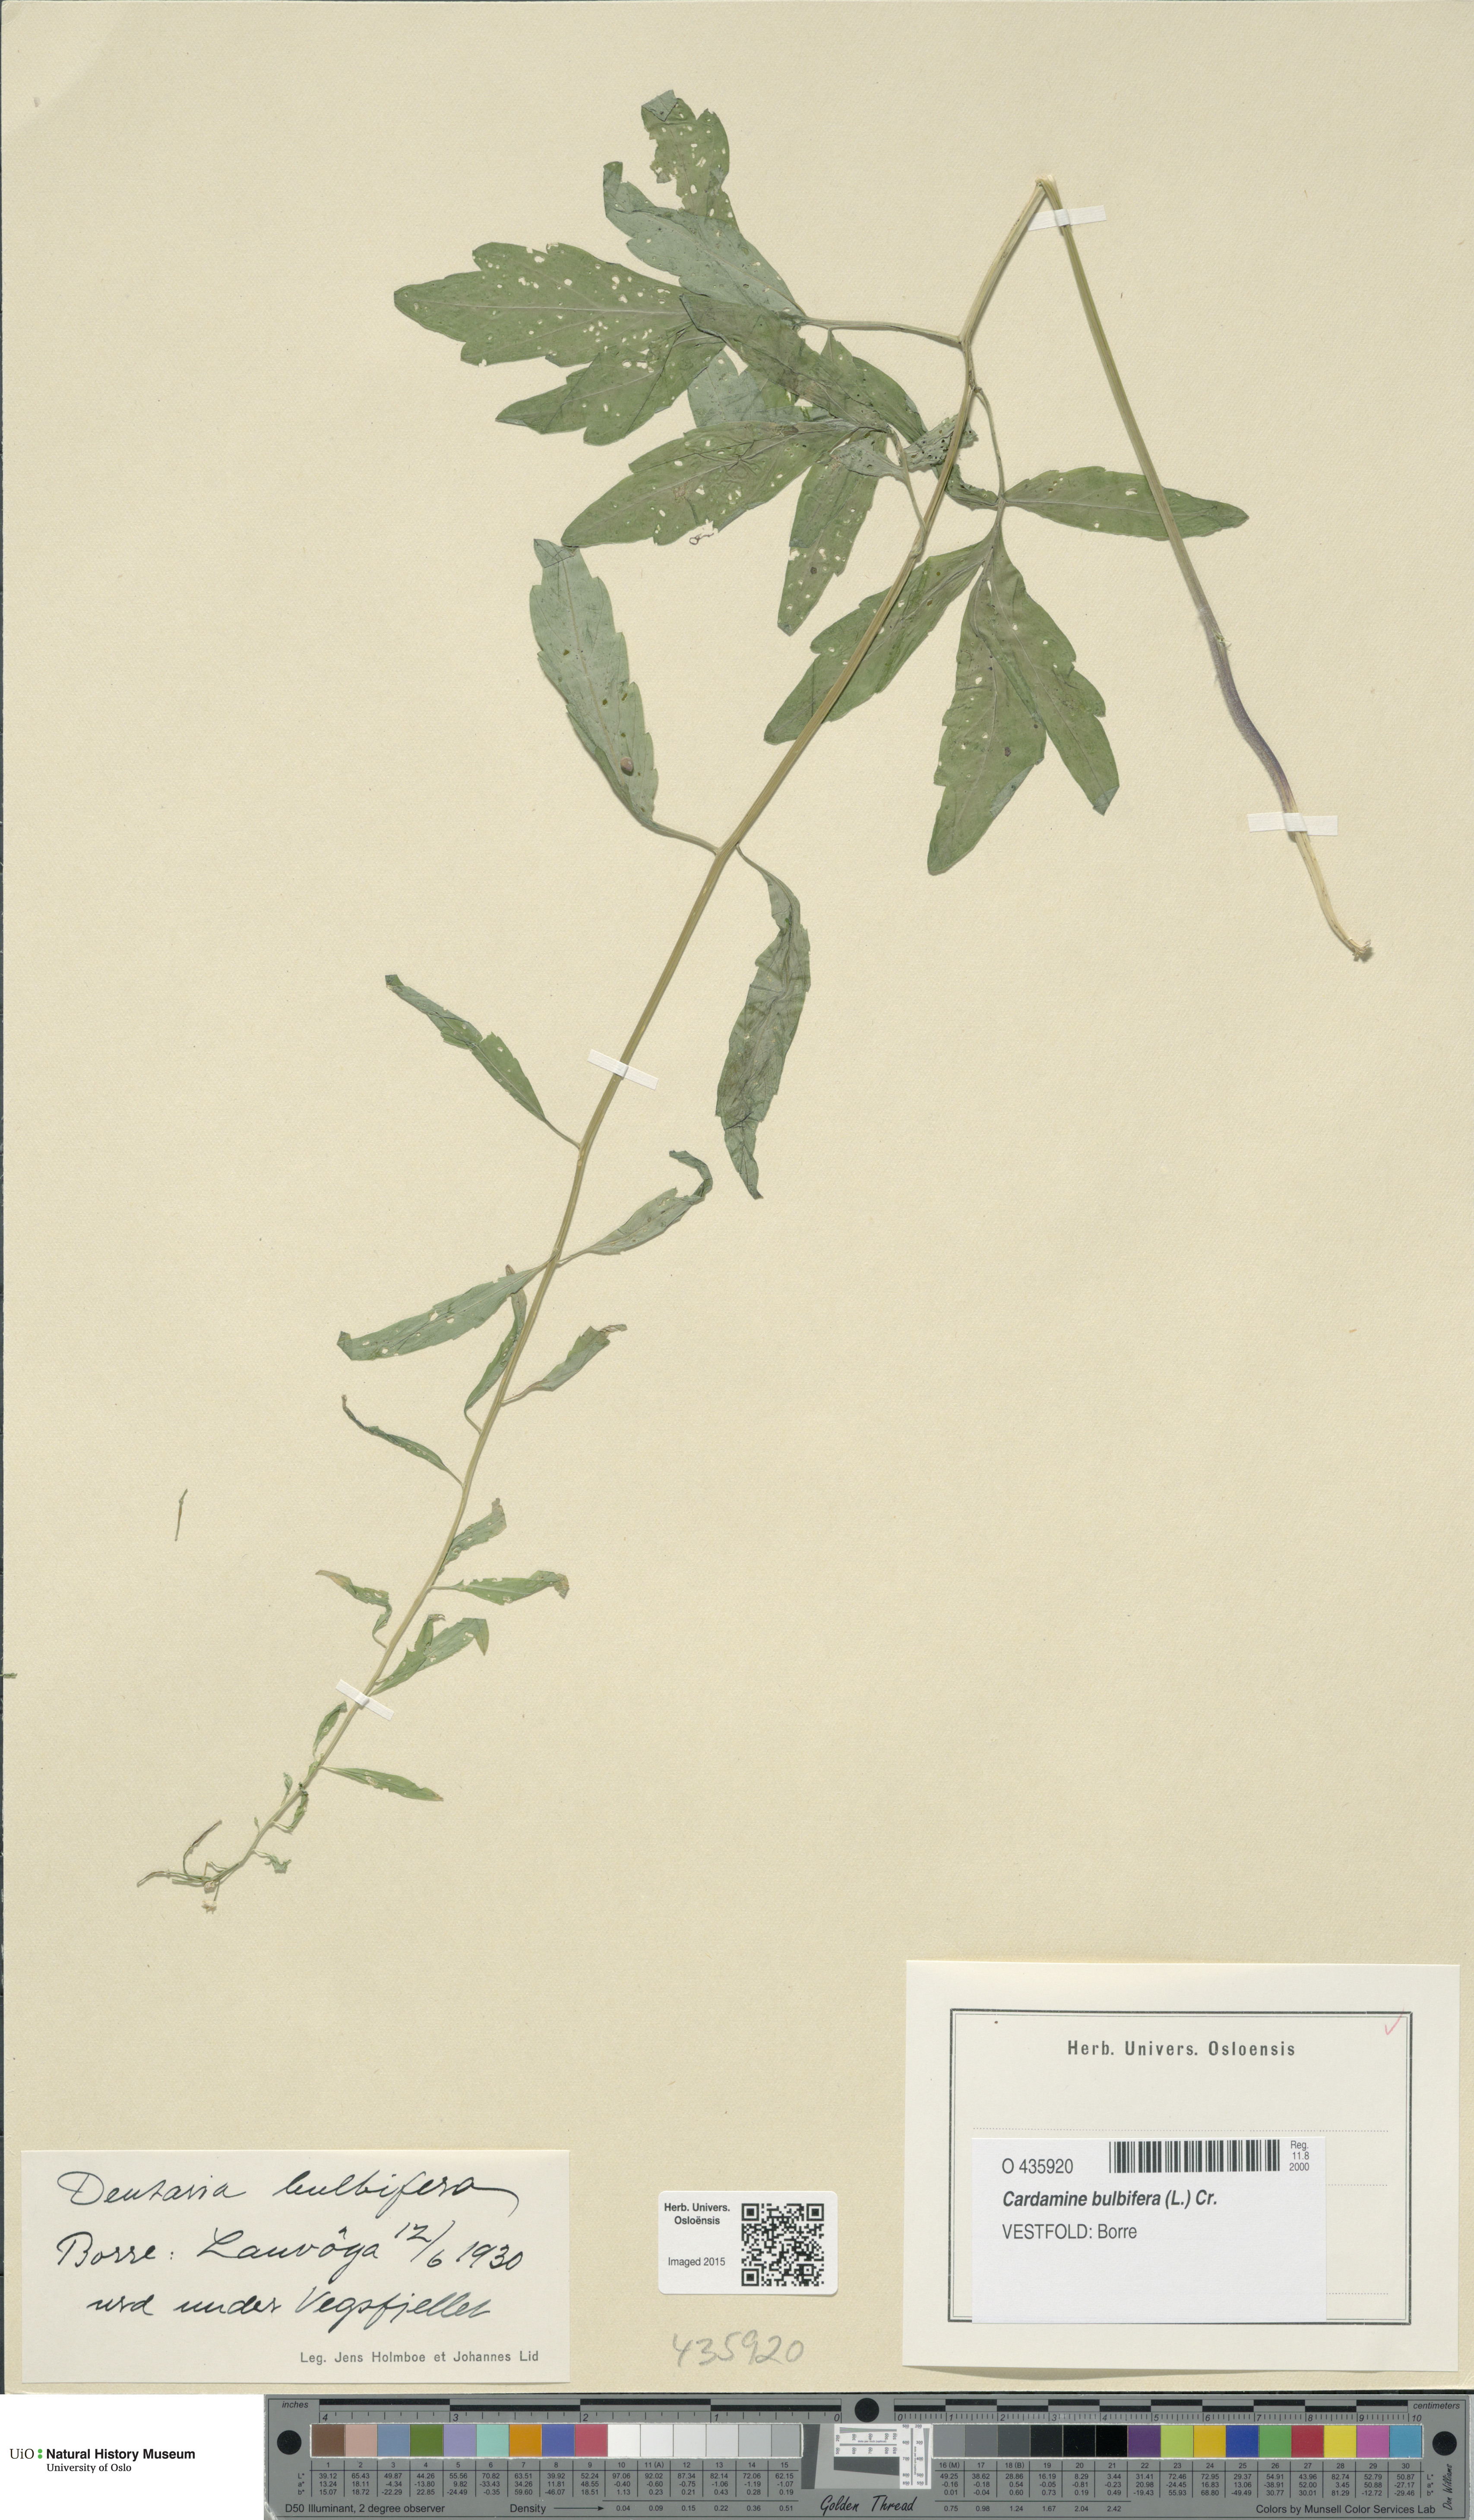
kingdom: Plantae
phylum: Tracheophyta
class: Magnoliopsida
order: Brassicales
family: Brassicaceae
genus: Cardamine
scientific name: Cardamine bulbifera
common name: Coralroot bittercress
